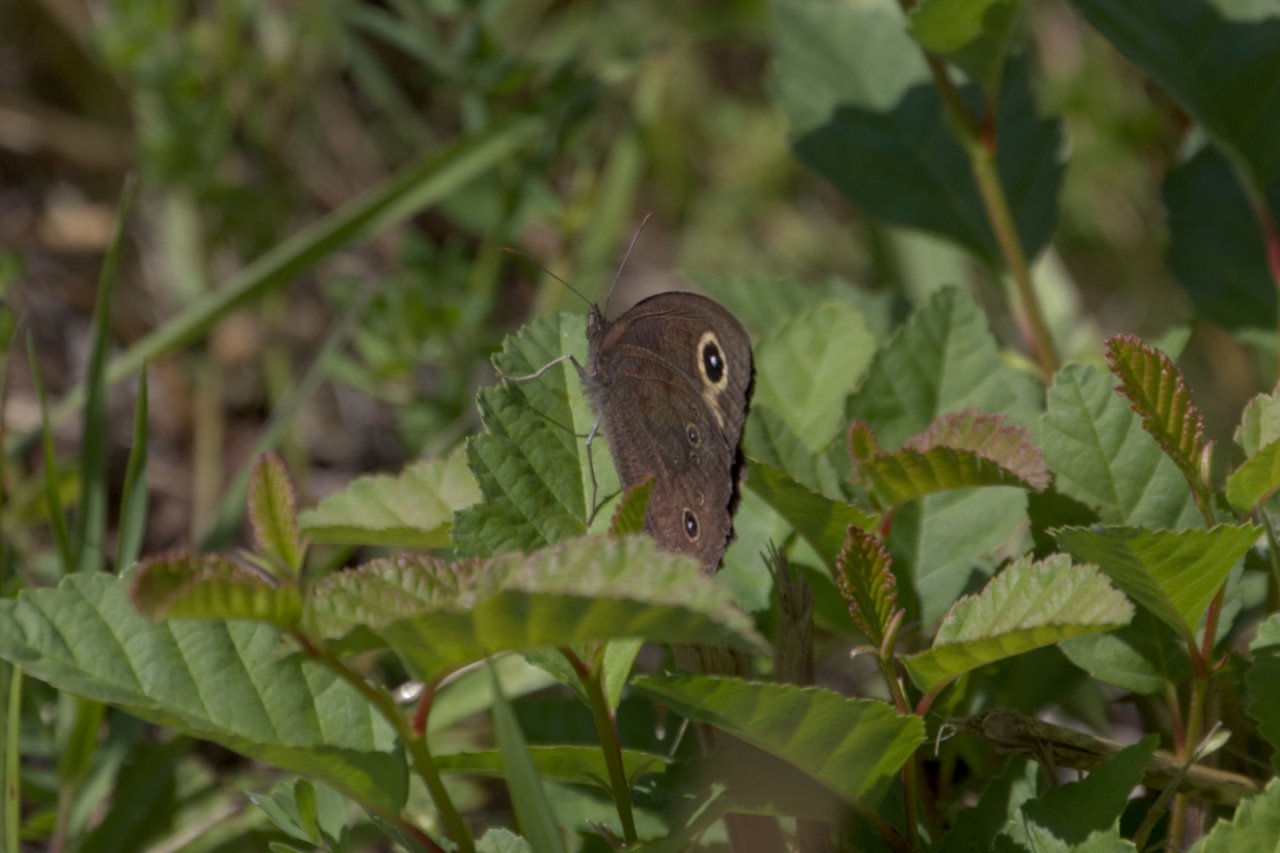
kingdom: Animalia
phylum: Arthropoda
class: Insecta
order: Lepidoptera
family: Nymphalidae
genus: Cercyonis
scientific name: Cercyonis pegala
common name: Common Wood-Nymph
